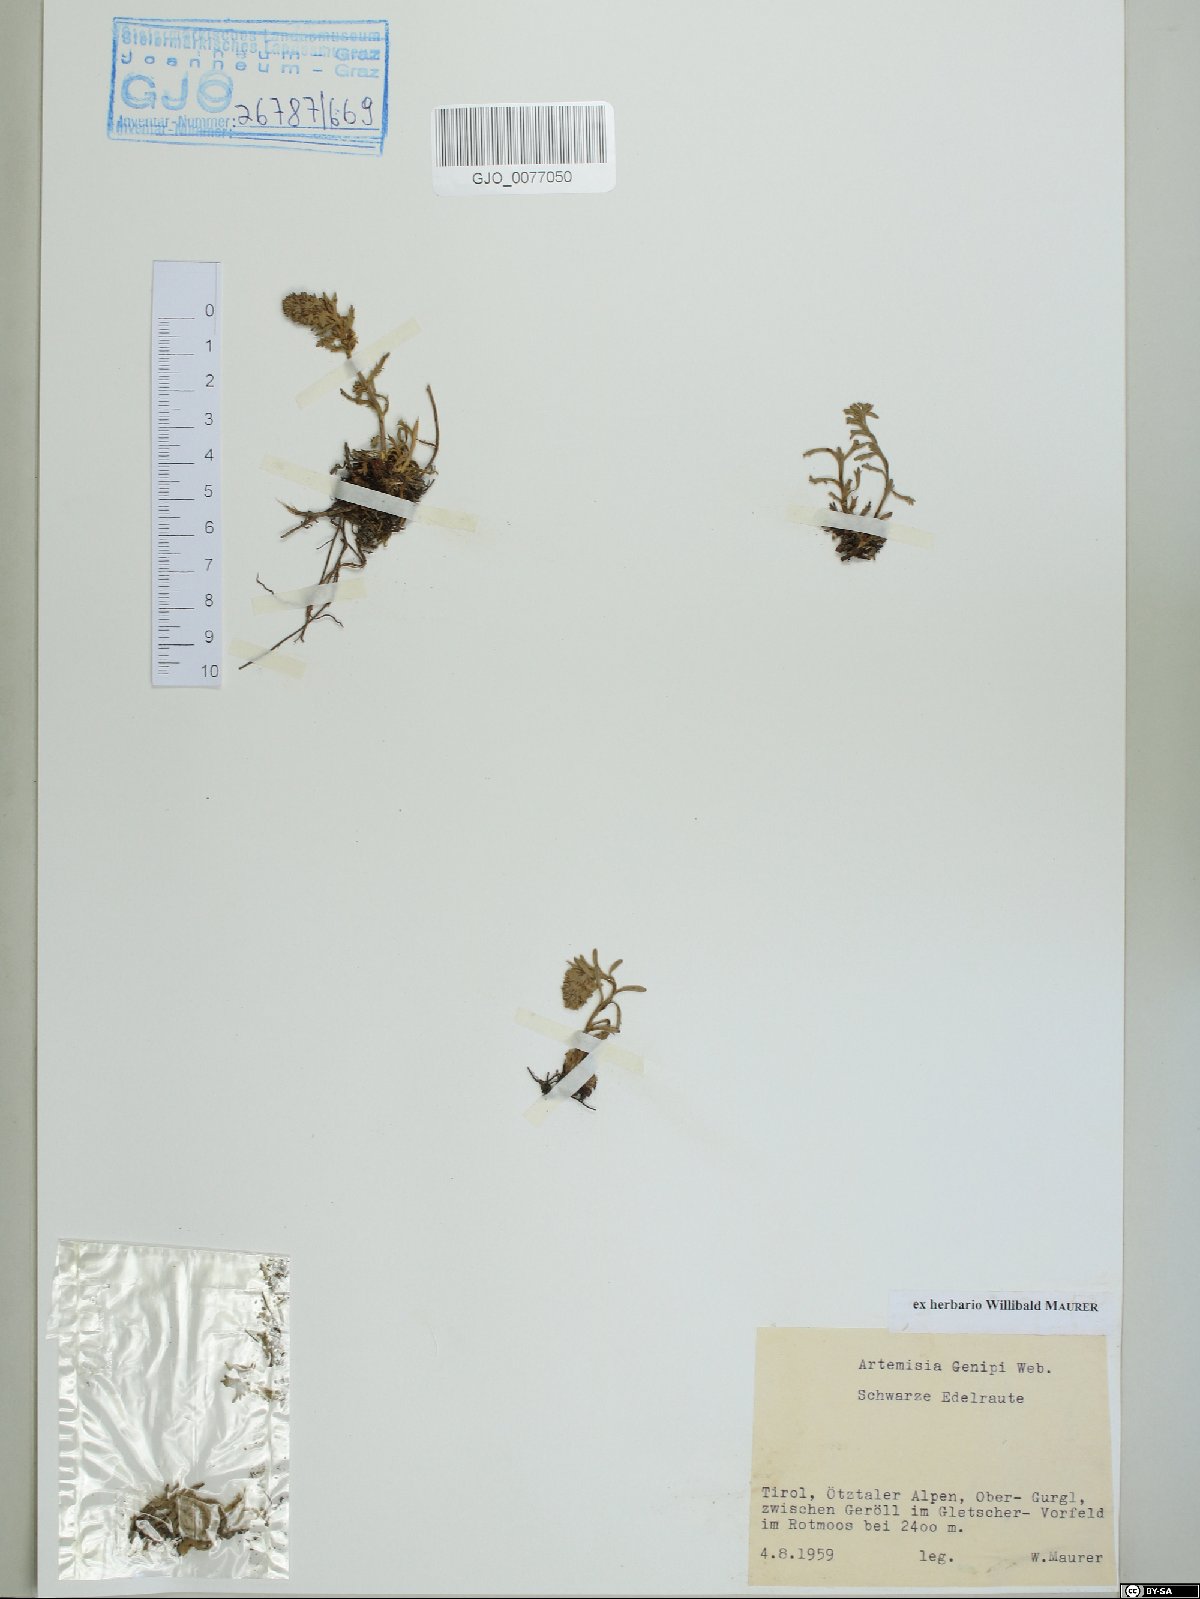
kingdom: Plantae
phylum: Tracheophyta
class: Magnoliopsida
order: Asterales
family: Asteraceae
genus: Artemisia
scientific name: Artemisia genipi
